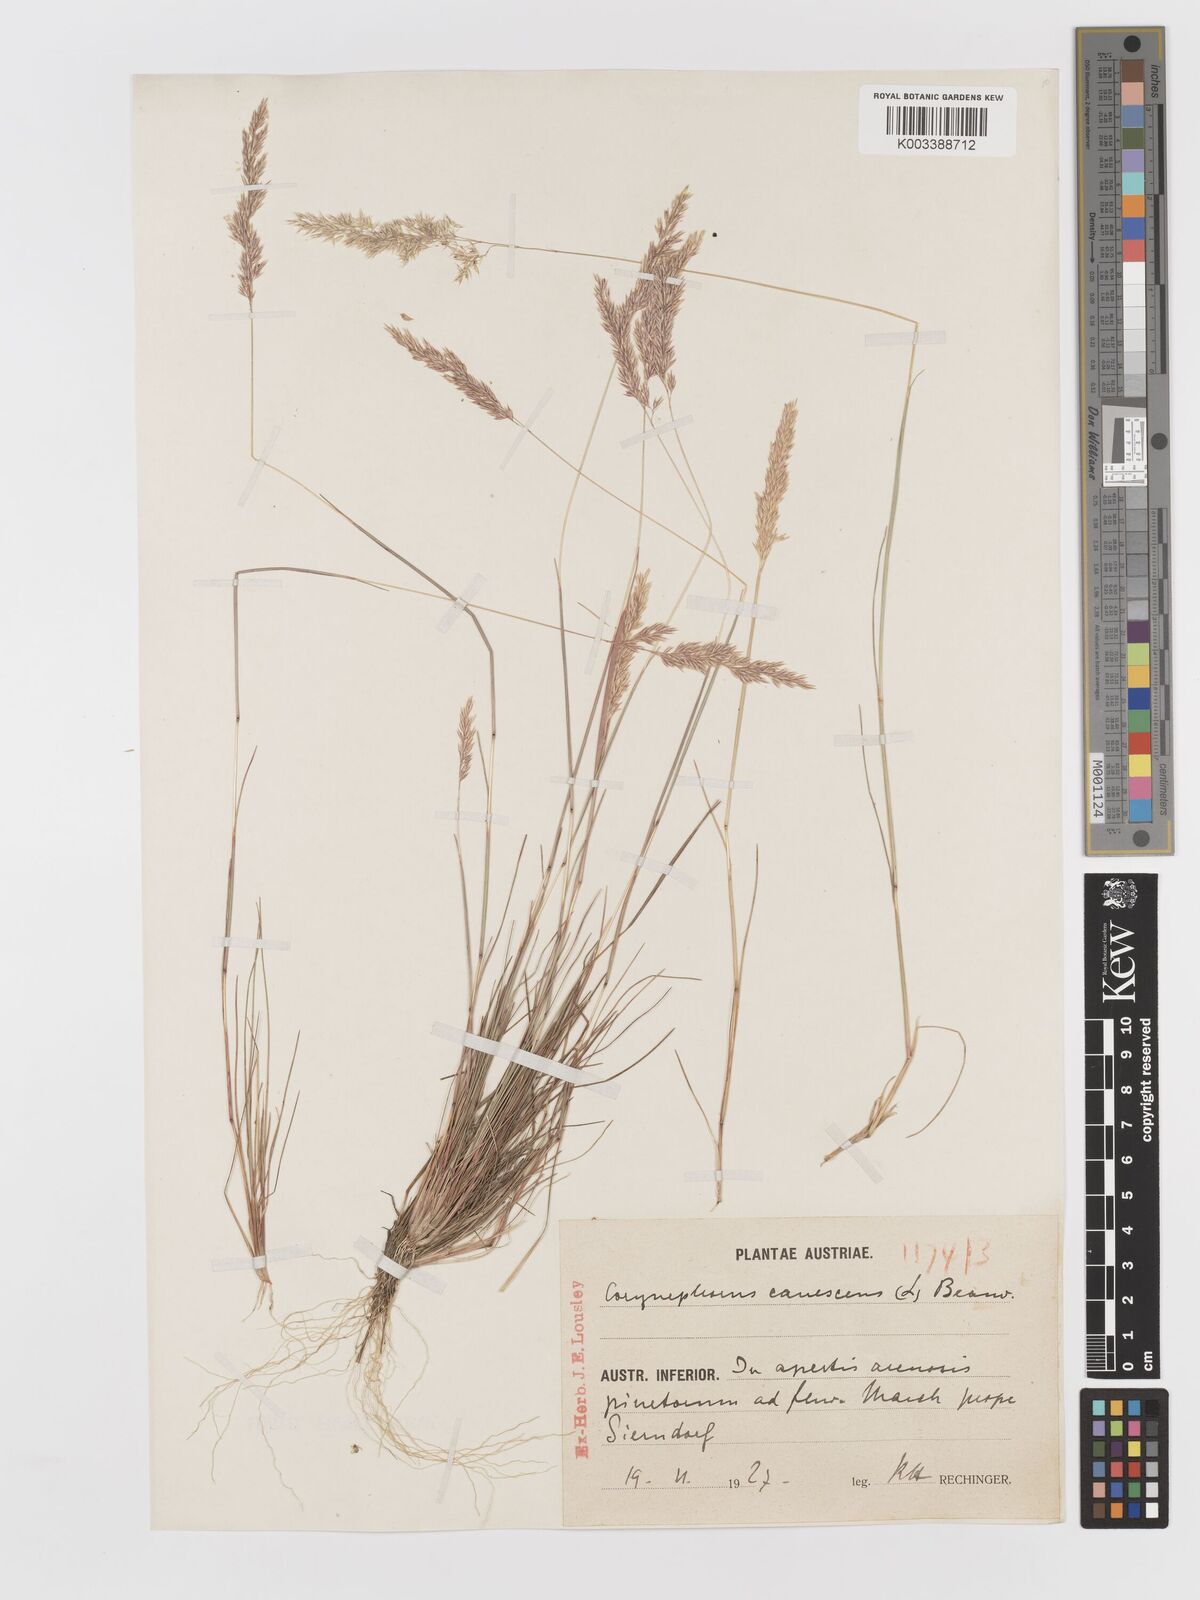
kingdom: Plantae
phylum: Tracheophyta
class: Liliopsida
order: Poales
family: Poaceae
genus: Corynephorus
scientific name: Corynephorus canescens
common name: Grey hair-grass
